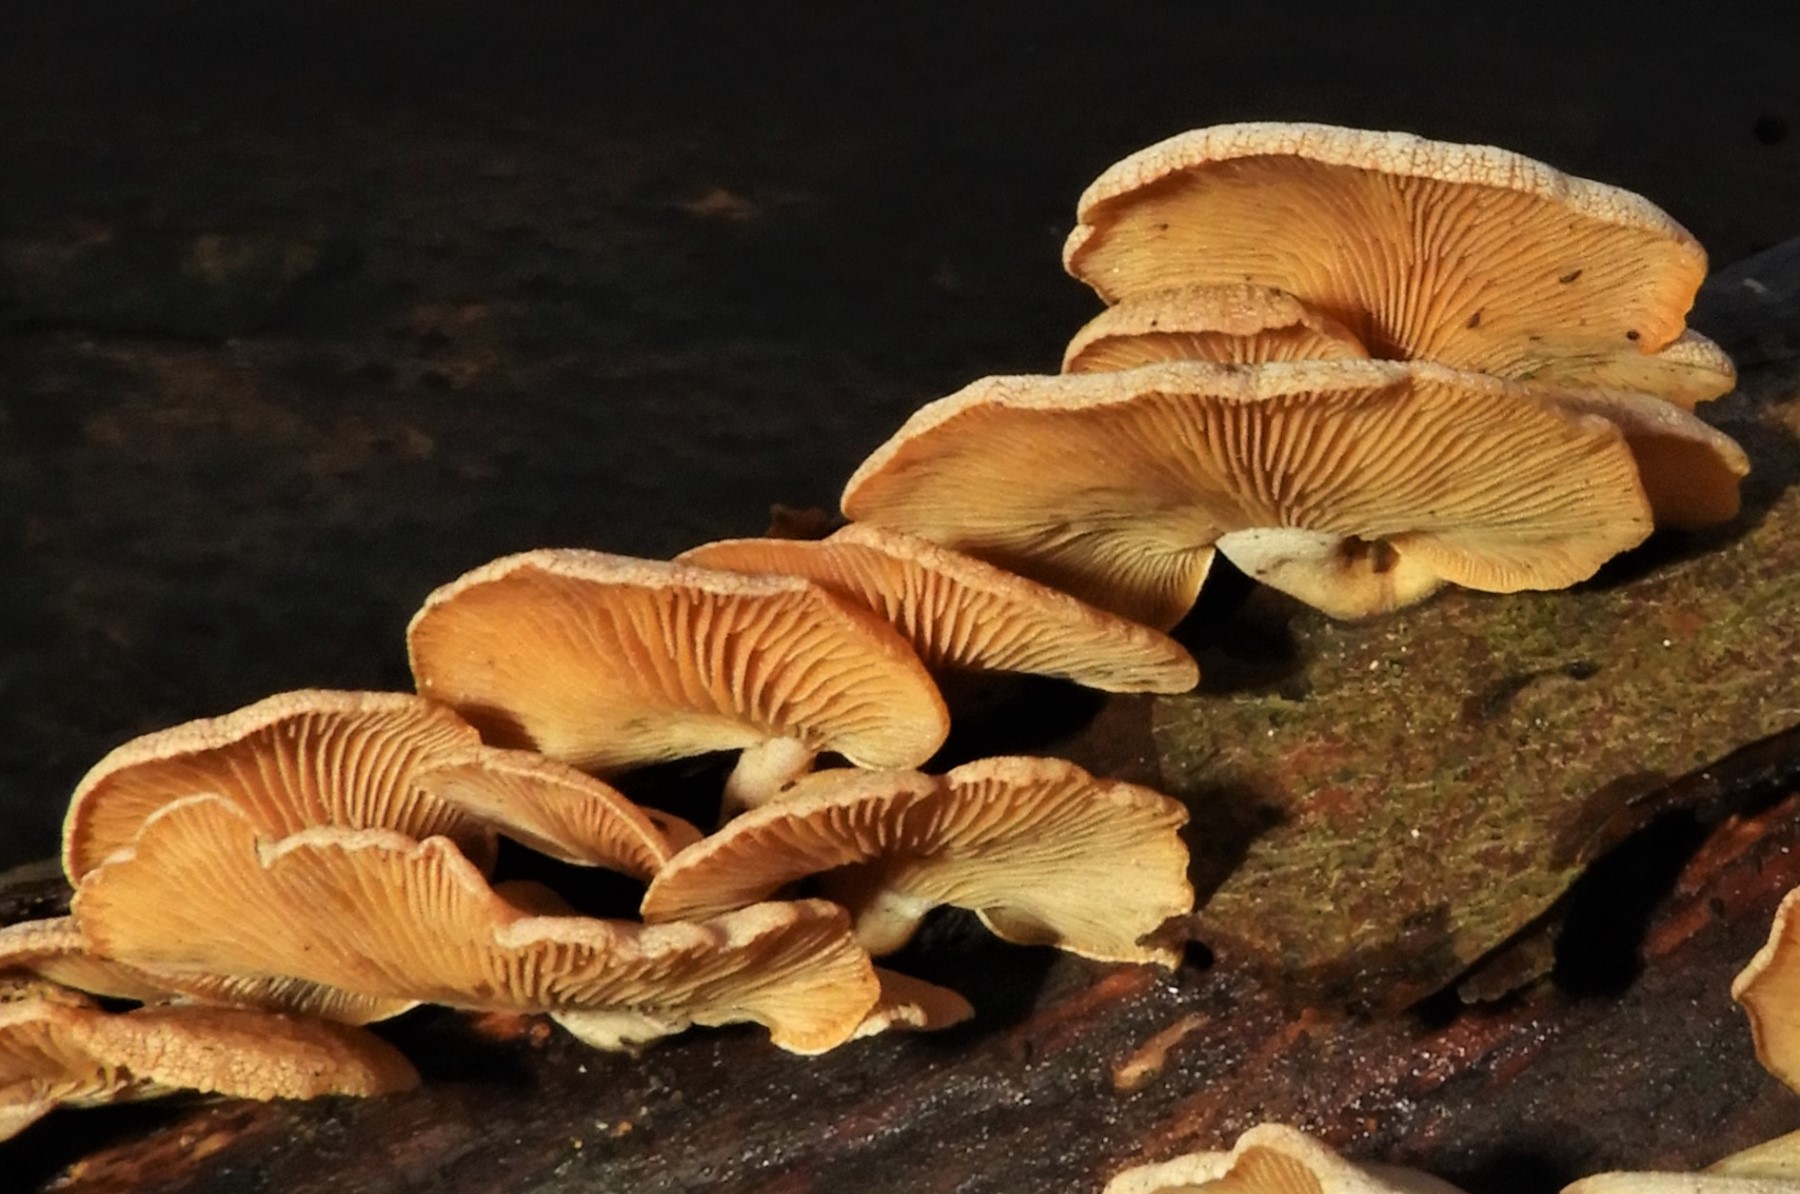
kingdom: Fungi
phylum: Basidiomycota
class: Agaricomycetes
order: Agaricales
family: Mycenaceae
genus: Panellus
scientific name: Panellus stipticus
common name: kliddet epaulethat
